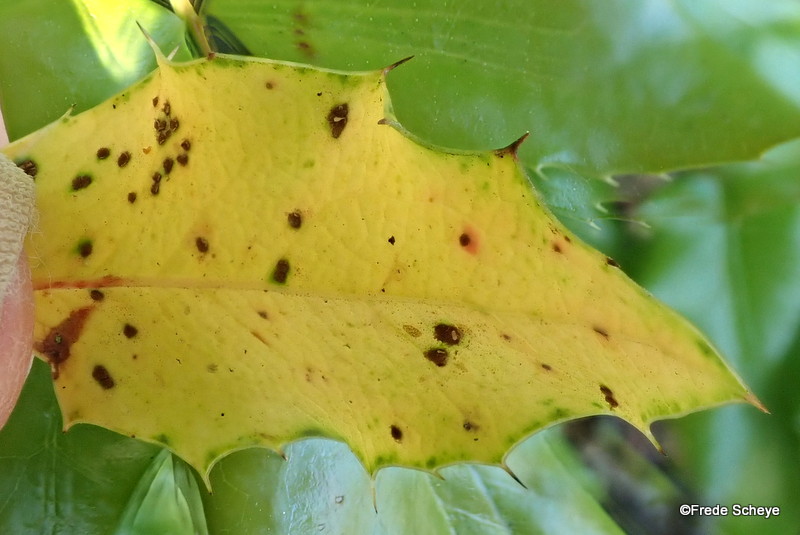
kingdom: Fungi
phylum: Basidiomycota
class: Pucciniomycetes
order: Pucciniales
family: Pucciniaceae
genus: Cumminsiella
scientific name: Cumminsiella mirabilissima
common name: mahonierust
